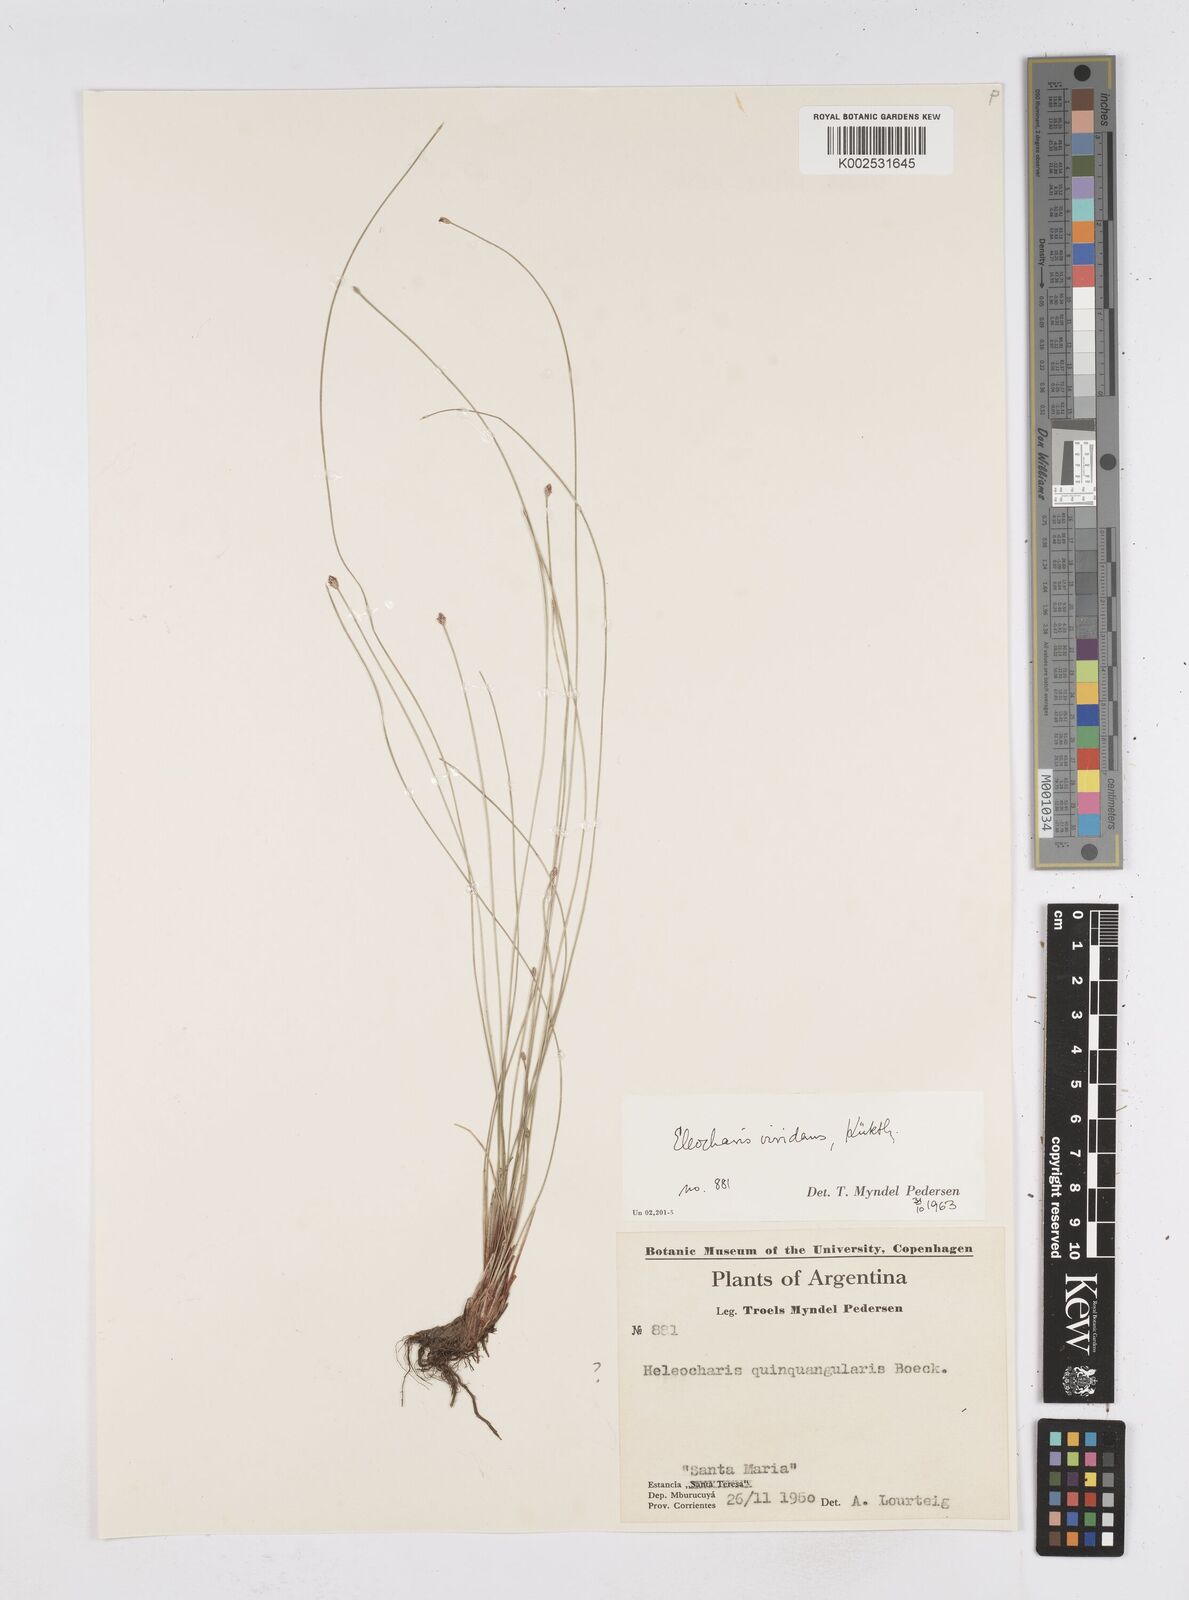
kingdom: Plantae
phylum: Tracheophyta
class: Liliopsida
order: Poales
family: Cyperaceae
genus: Eleocharis
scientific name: Eleocharis viridans
